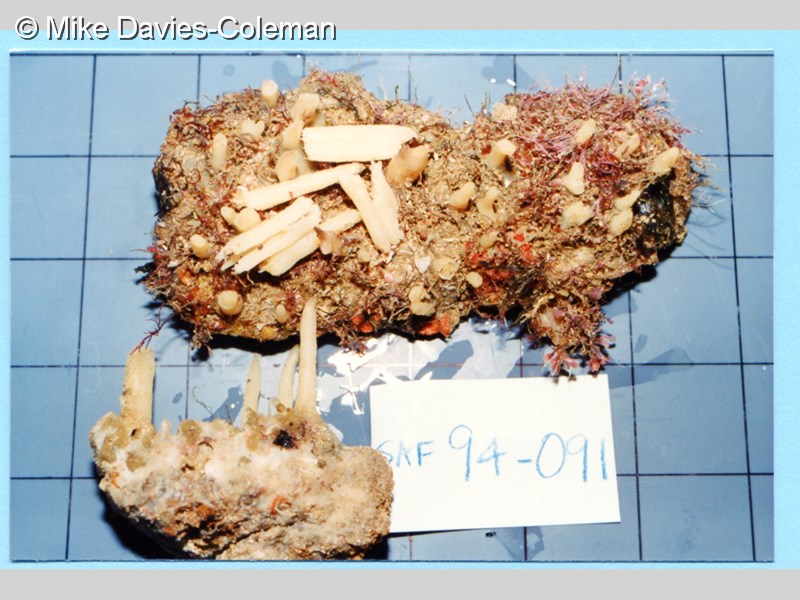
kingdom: Animalia
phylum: Porifera
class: Demospongiae
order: Haplosclerida
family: Phloeodictyidae
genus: Oceanapia
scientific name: Oceanapia eumita
